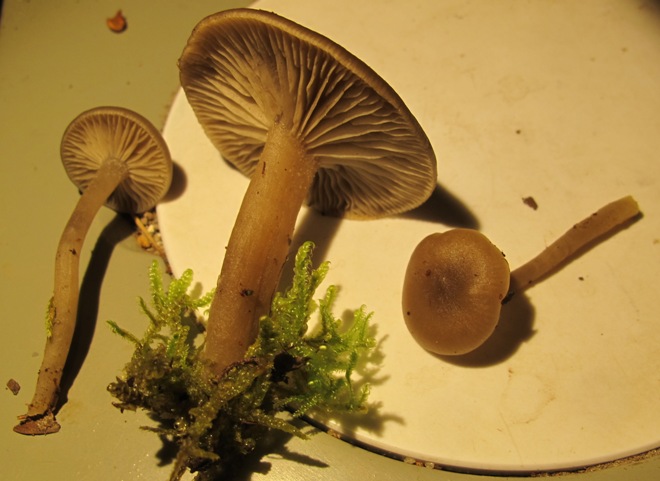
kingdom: Fungi
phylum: Basidiomycota
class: Agaricomycetes
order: Agaricales
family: Tricholomataceae
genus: Clitocybe
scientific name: Clitocybe
